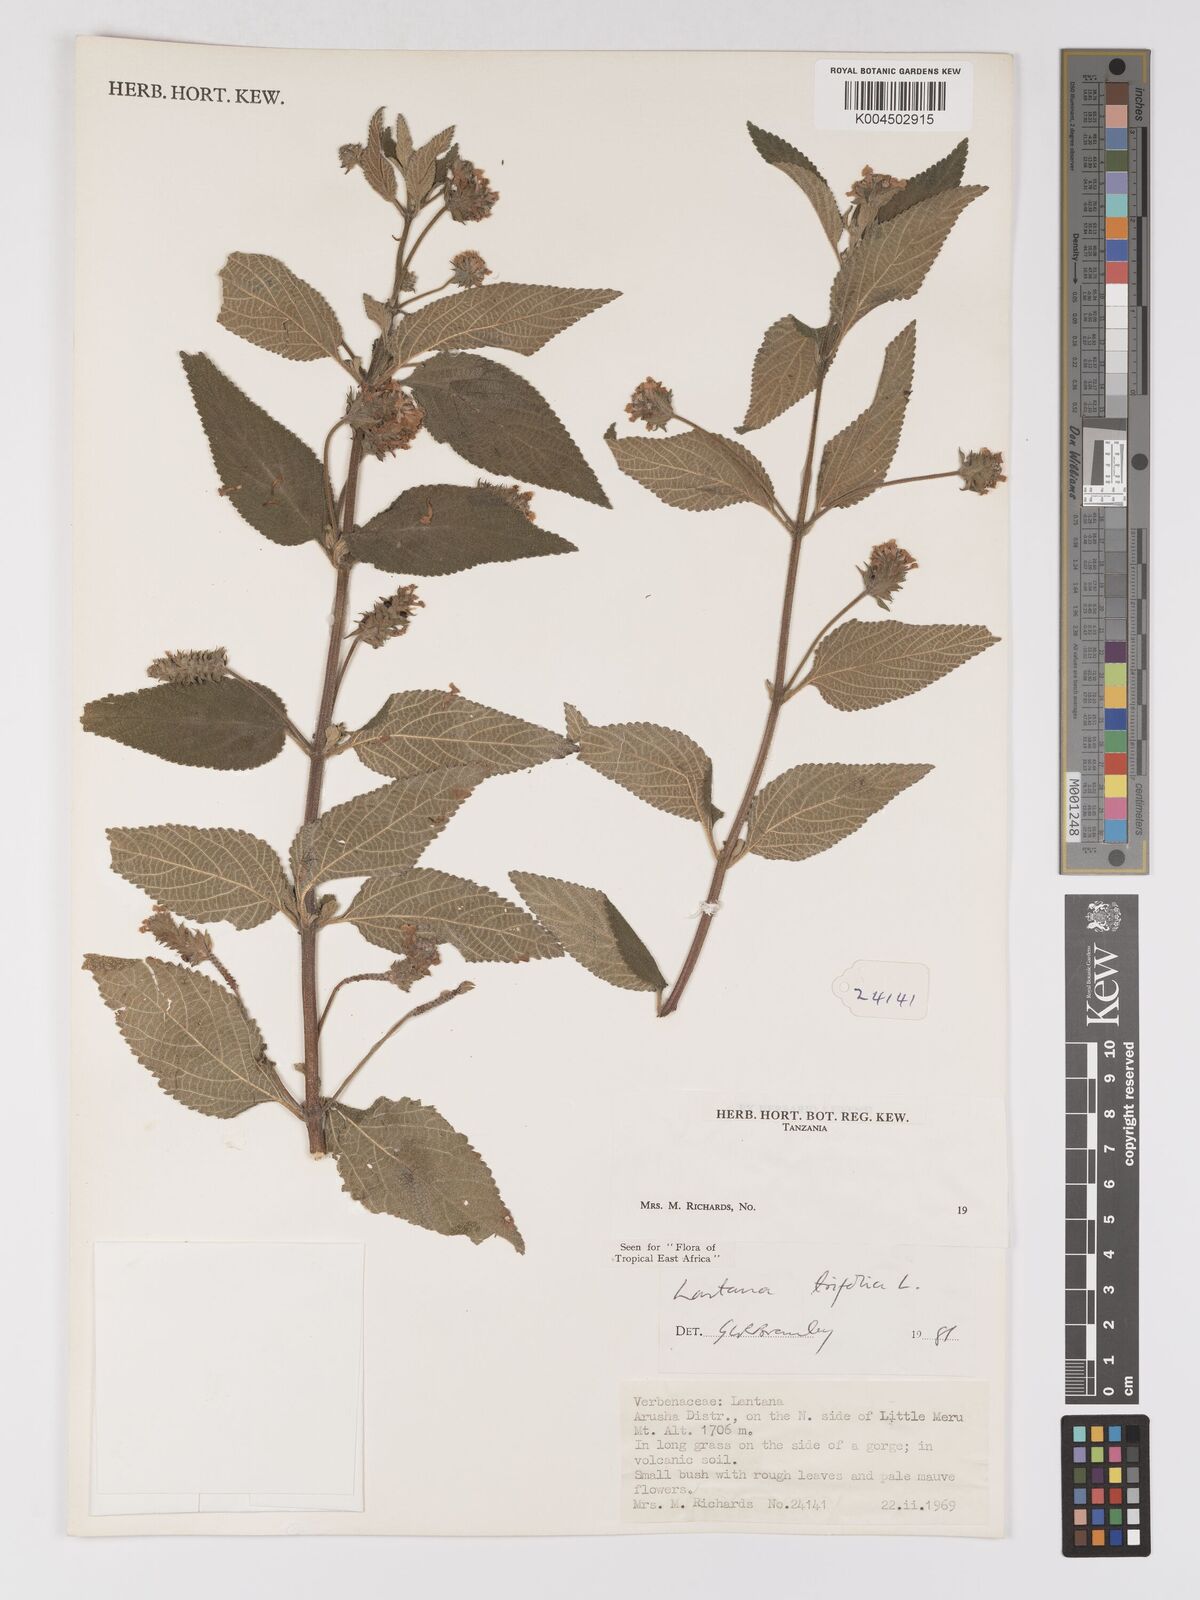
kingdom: Plantae
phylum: Tracheophyta
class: Magnoliopsida
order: Lamiales
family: Verbenaceae
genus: Lantana
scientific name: Lantana trifolia
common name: Sweet-sage
